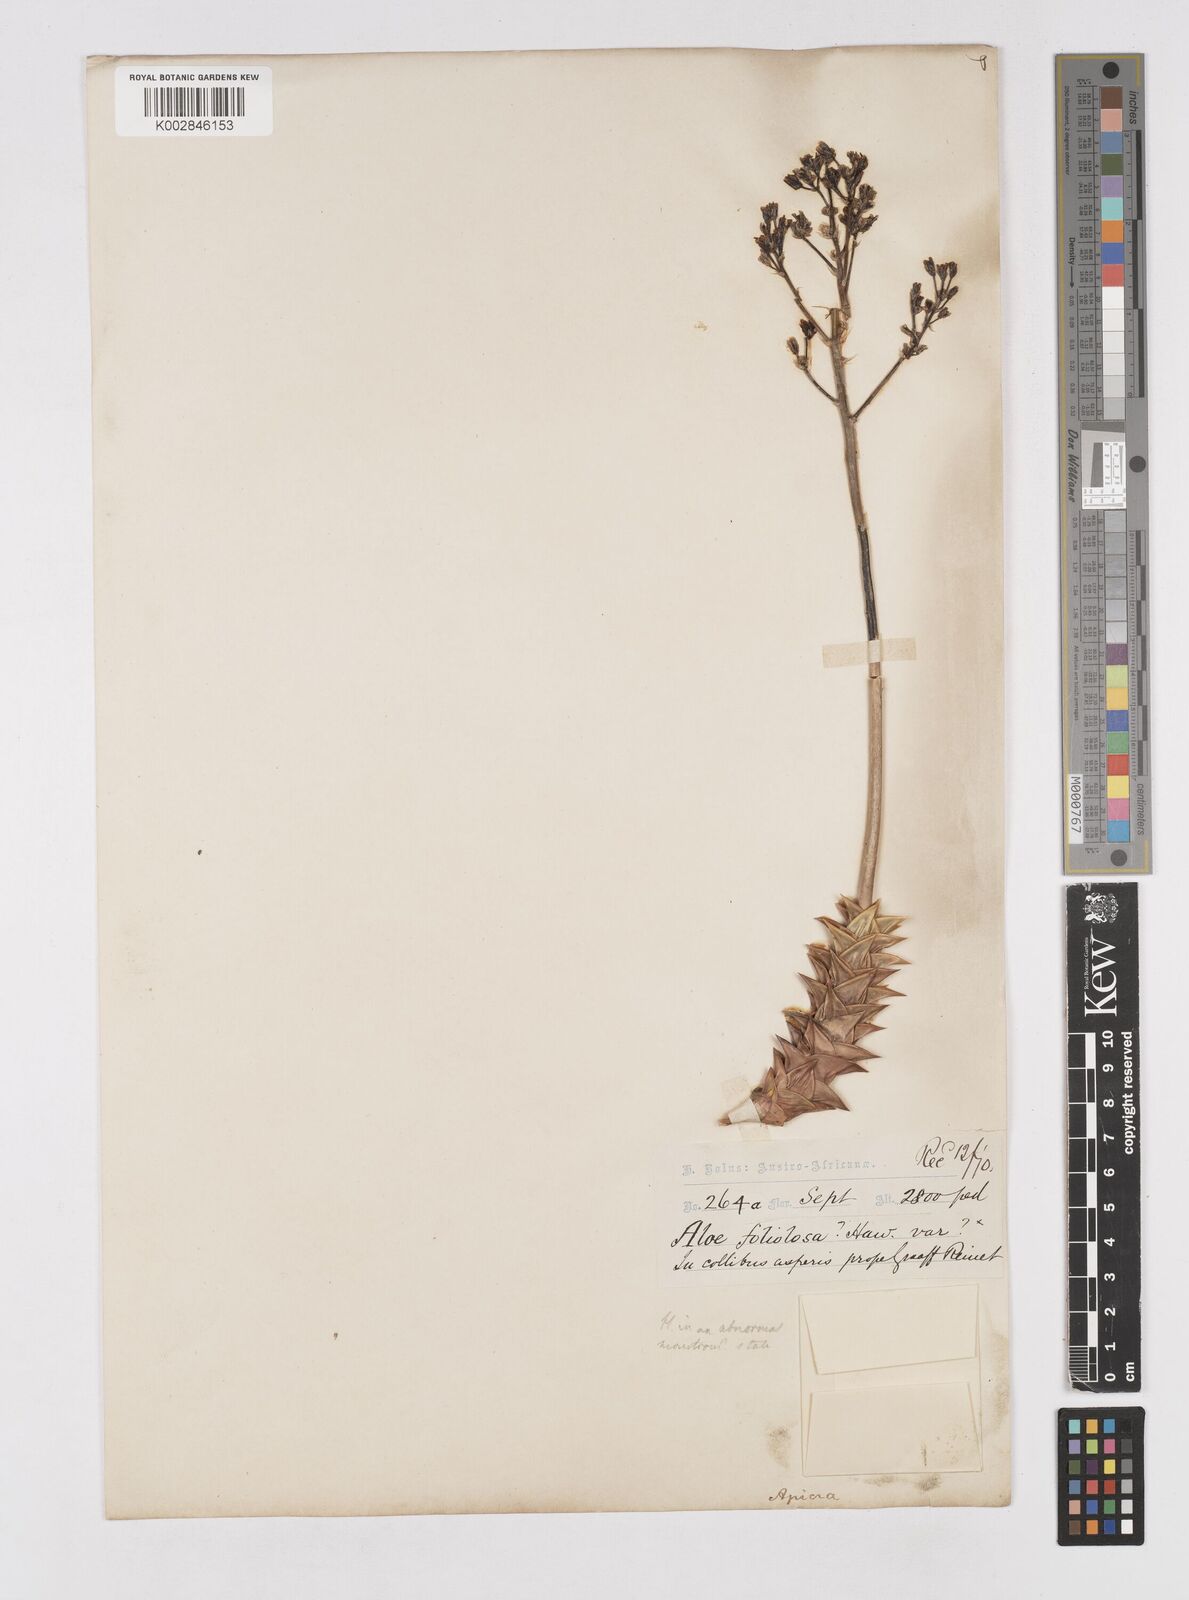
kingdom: Plantae
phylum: Tracheophyta
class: Liliopsida
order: Asparagales
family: Asphodelaceae
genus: Astroloba
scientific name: Astroloba foliolosa
